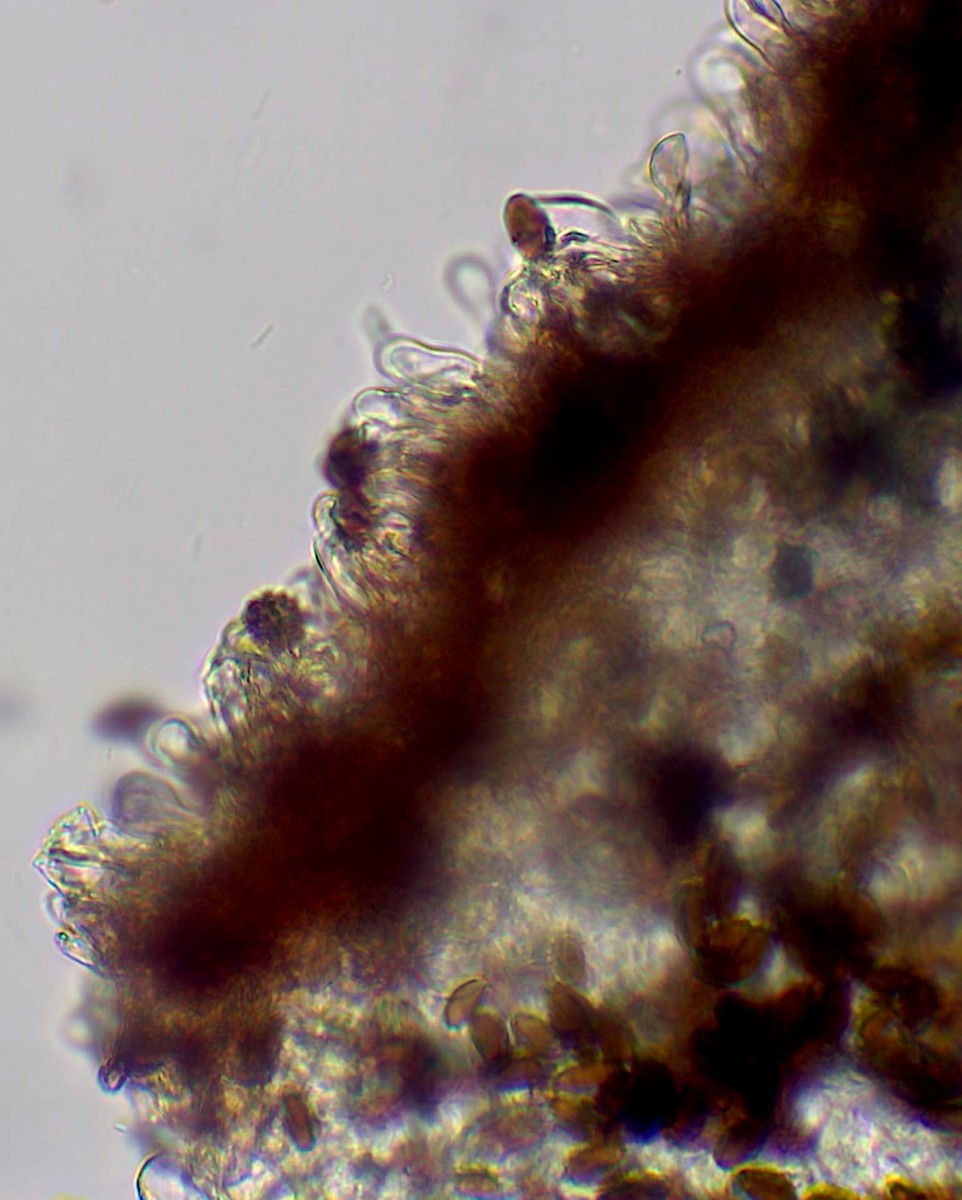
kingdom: Fungi
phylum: Basidiomycota
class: Agaricomycetes
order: Agaricales
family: Psathyrellaceae
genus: Psathyrella
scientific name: Psathyrella pseudogracilis
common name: slank mørkhat
